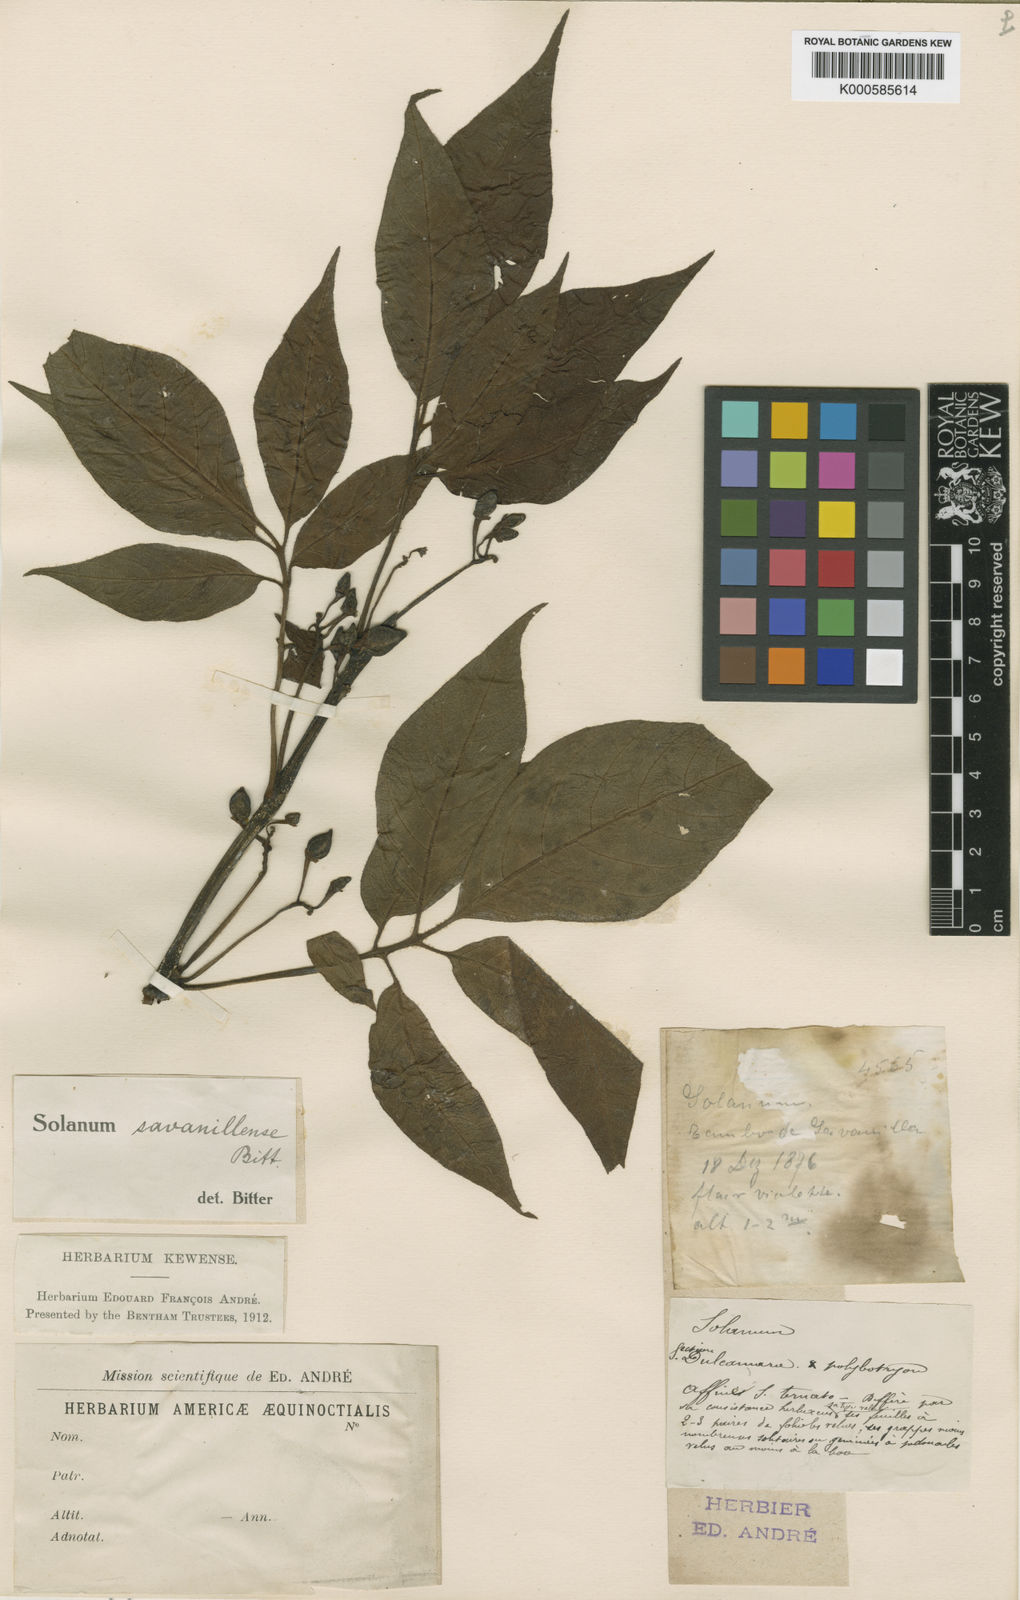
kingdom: Plantae
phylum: Tracheophyta
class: Magnoliopsida
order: Solanales
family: Solanaceae
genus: Solanum
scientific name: Solanum savanillense
